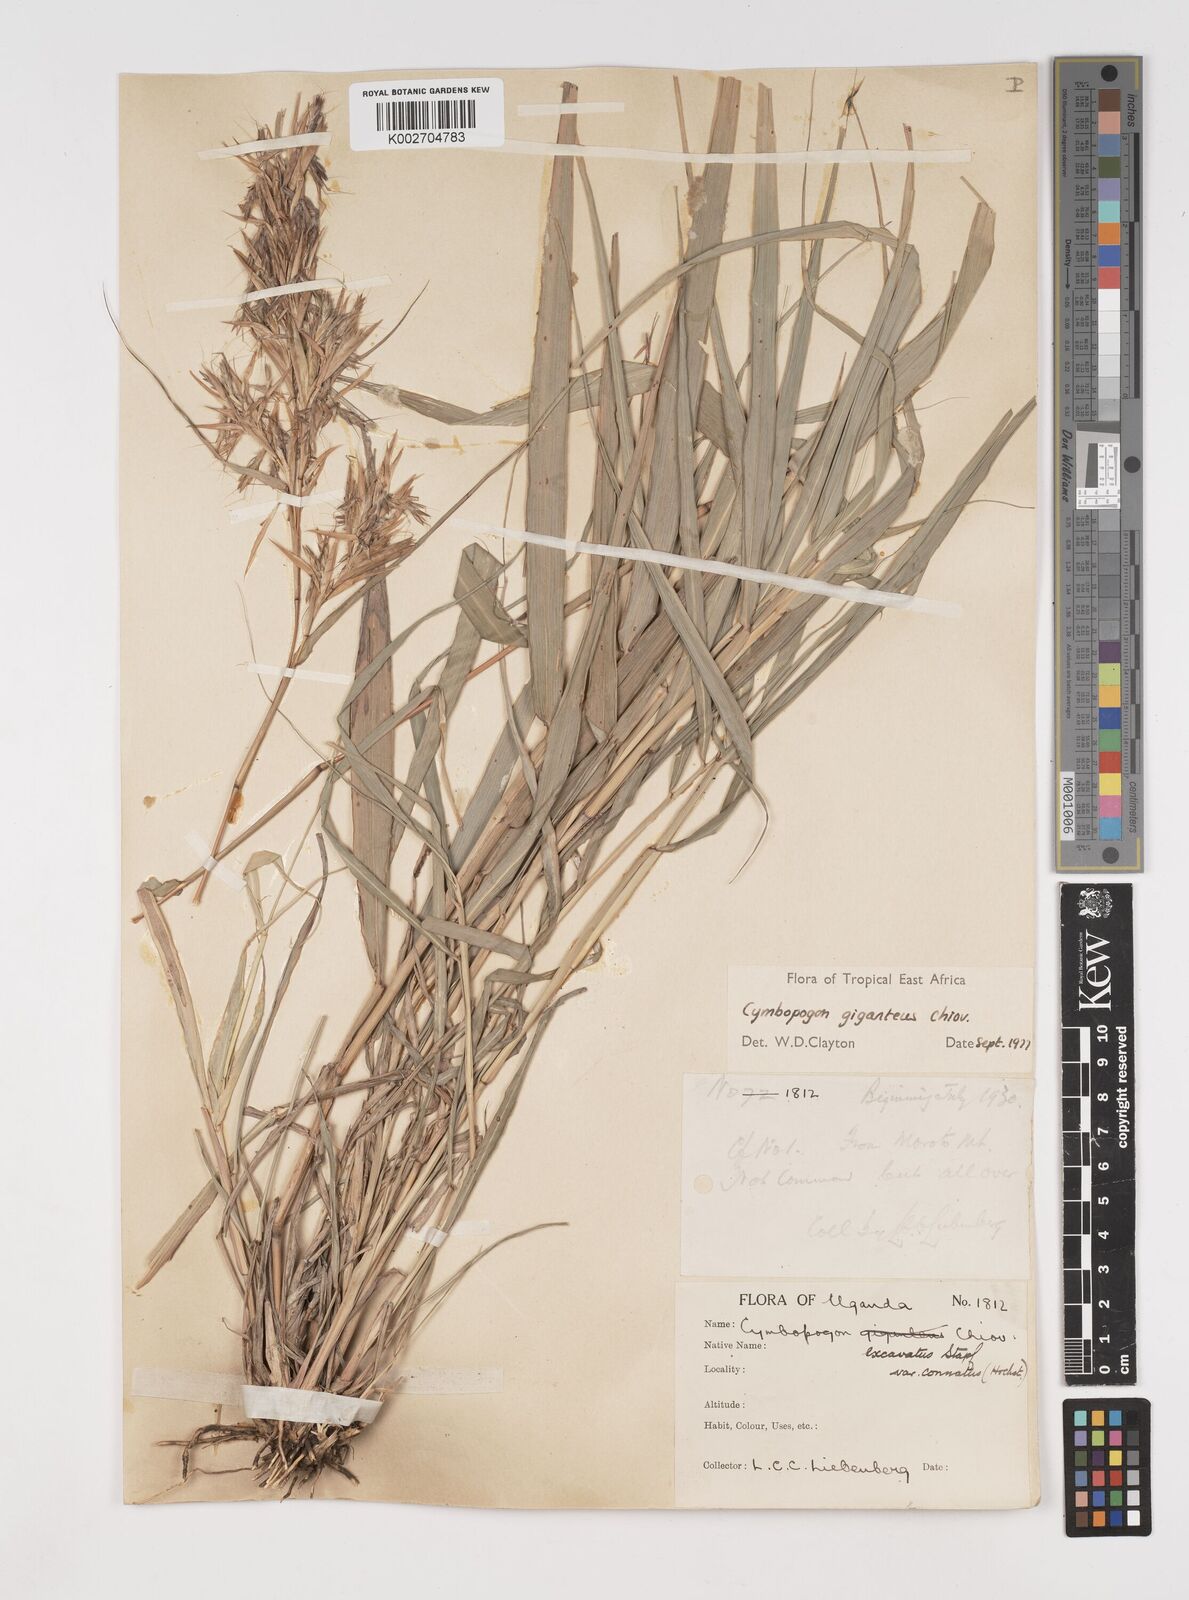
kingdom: Plantae
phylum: Tracheophyta
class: Liliopsida
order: Poales
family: Poaceae
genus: Cymbopogon
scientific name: Cymbopogon giganteus
